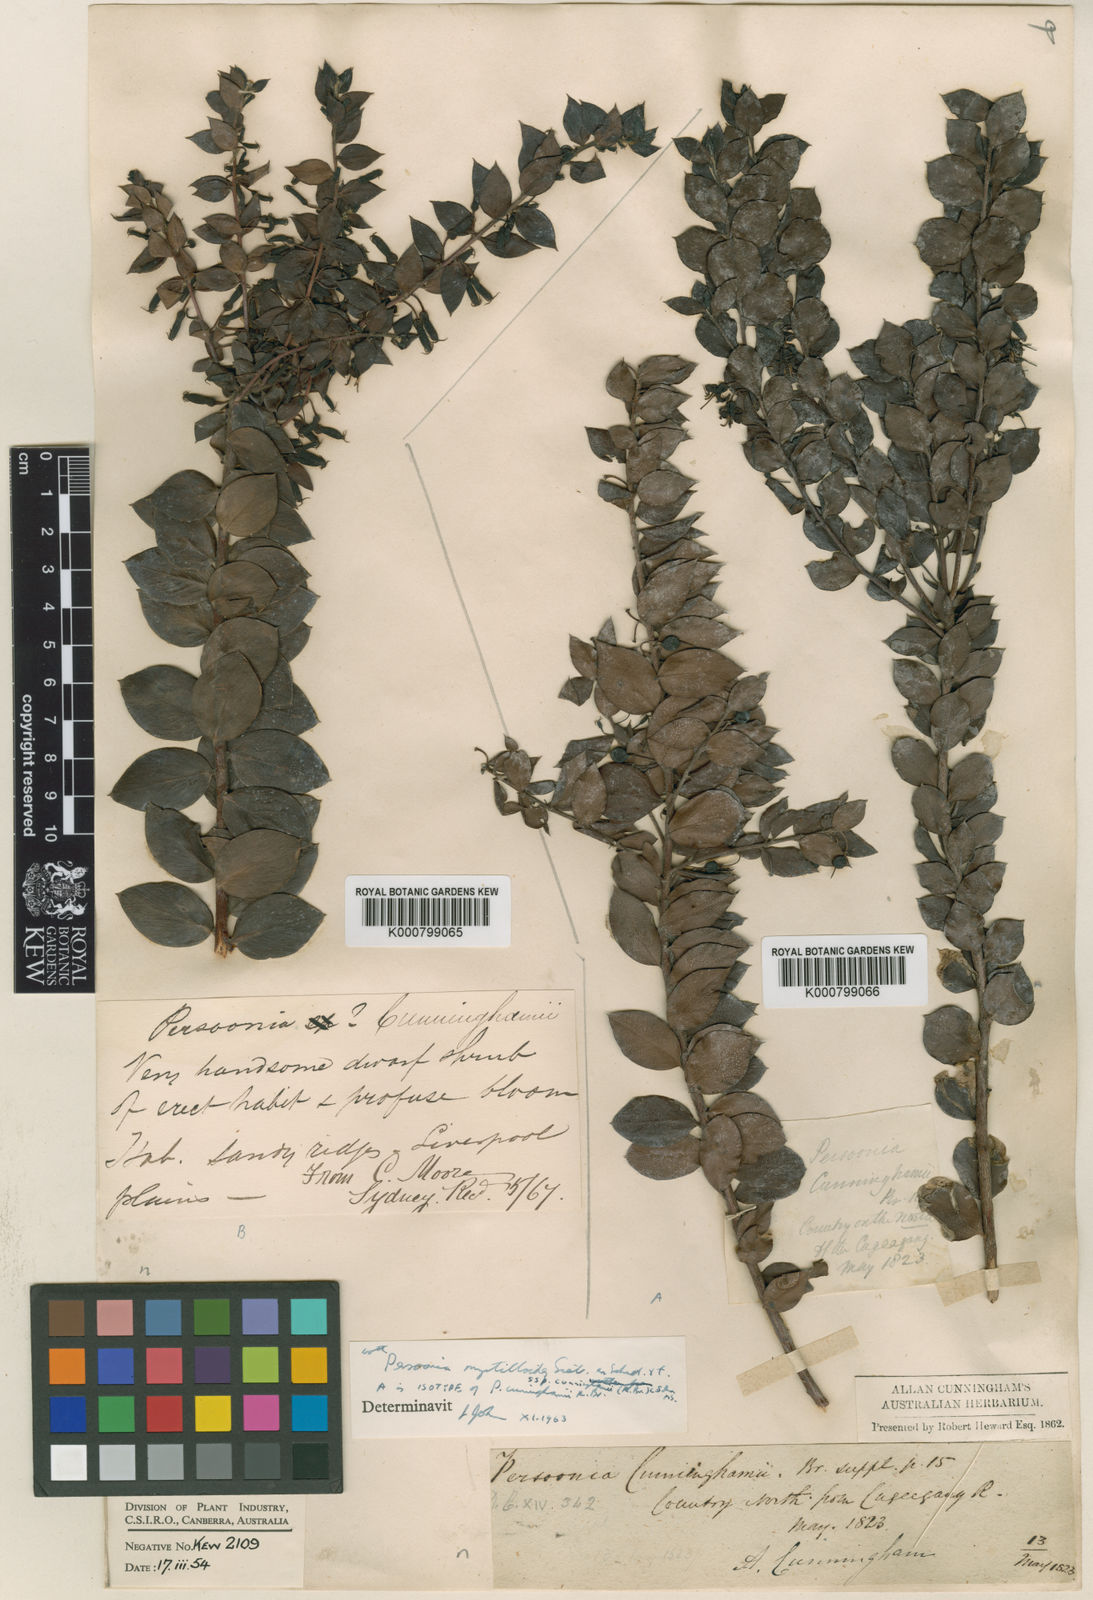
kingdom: Plantae
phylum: Tracheophyta
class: Magnoliopsida
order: Proteales
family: Proteaceae
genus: Persoonia
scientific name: Persoonia myrtilloides
